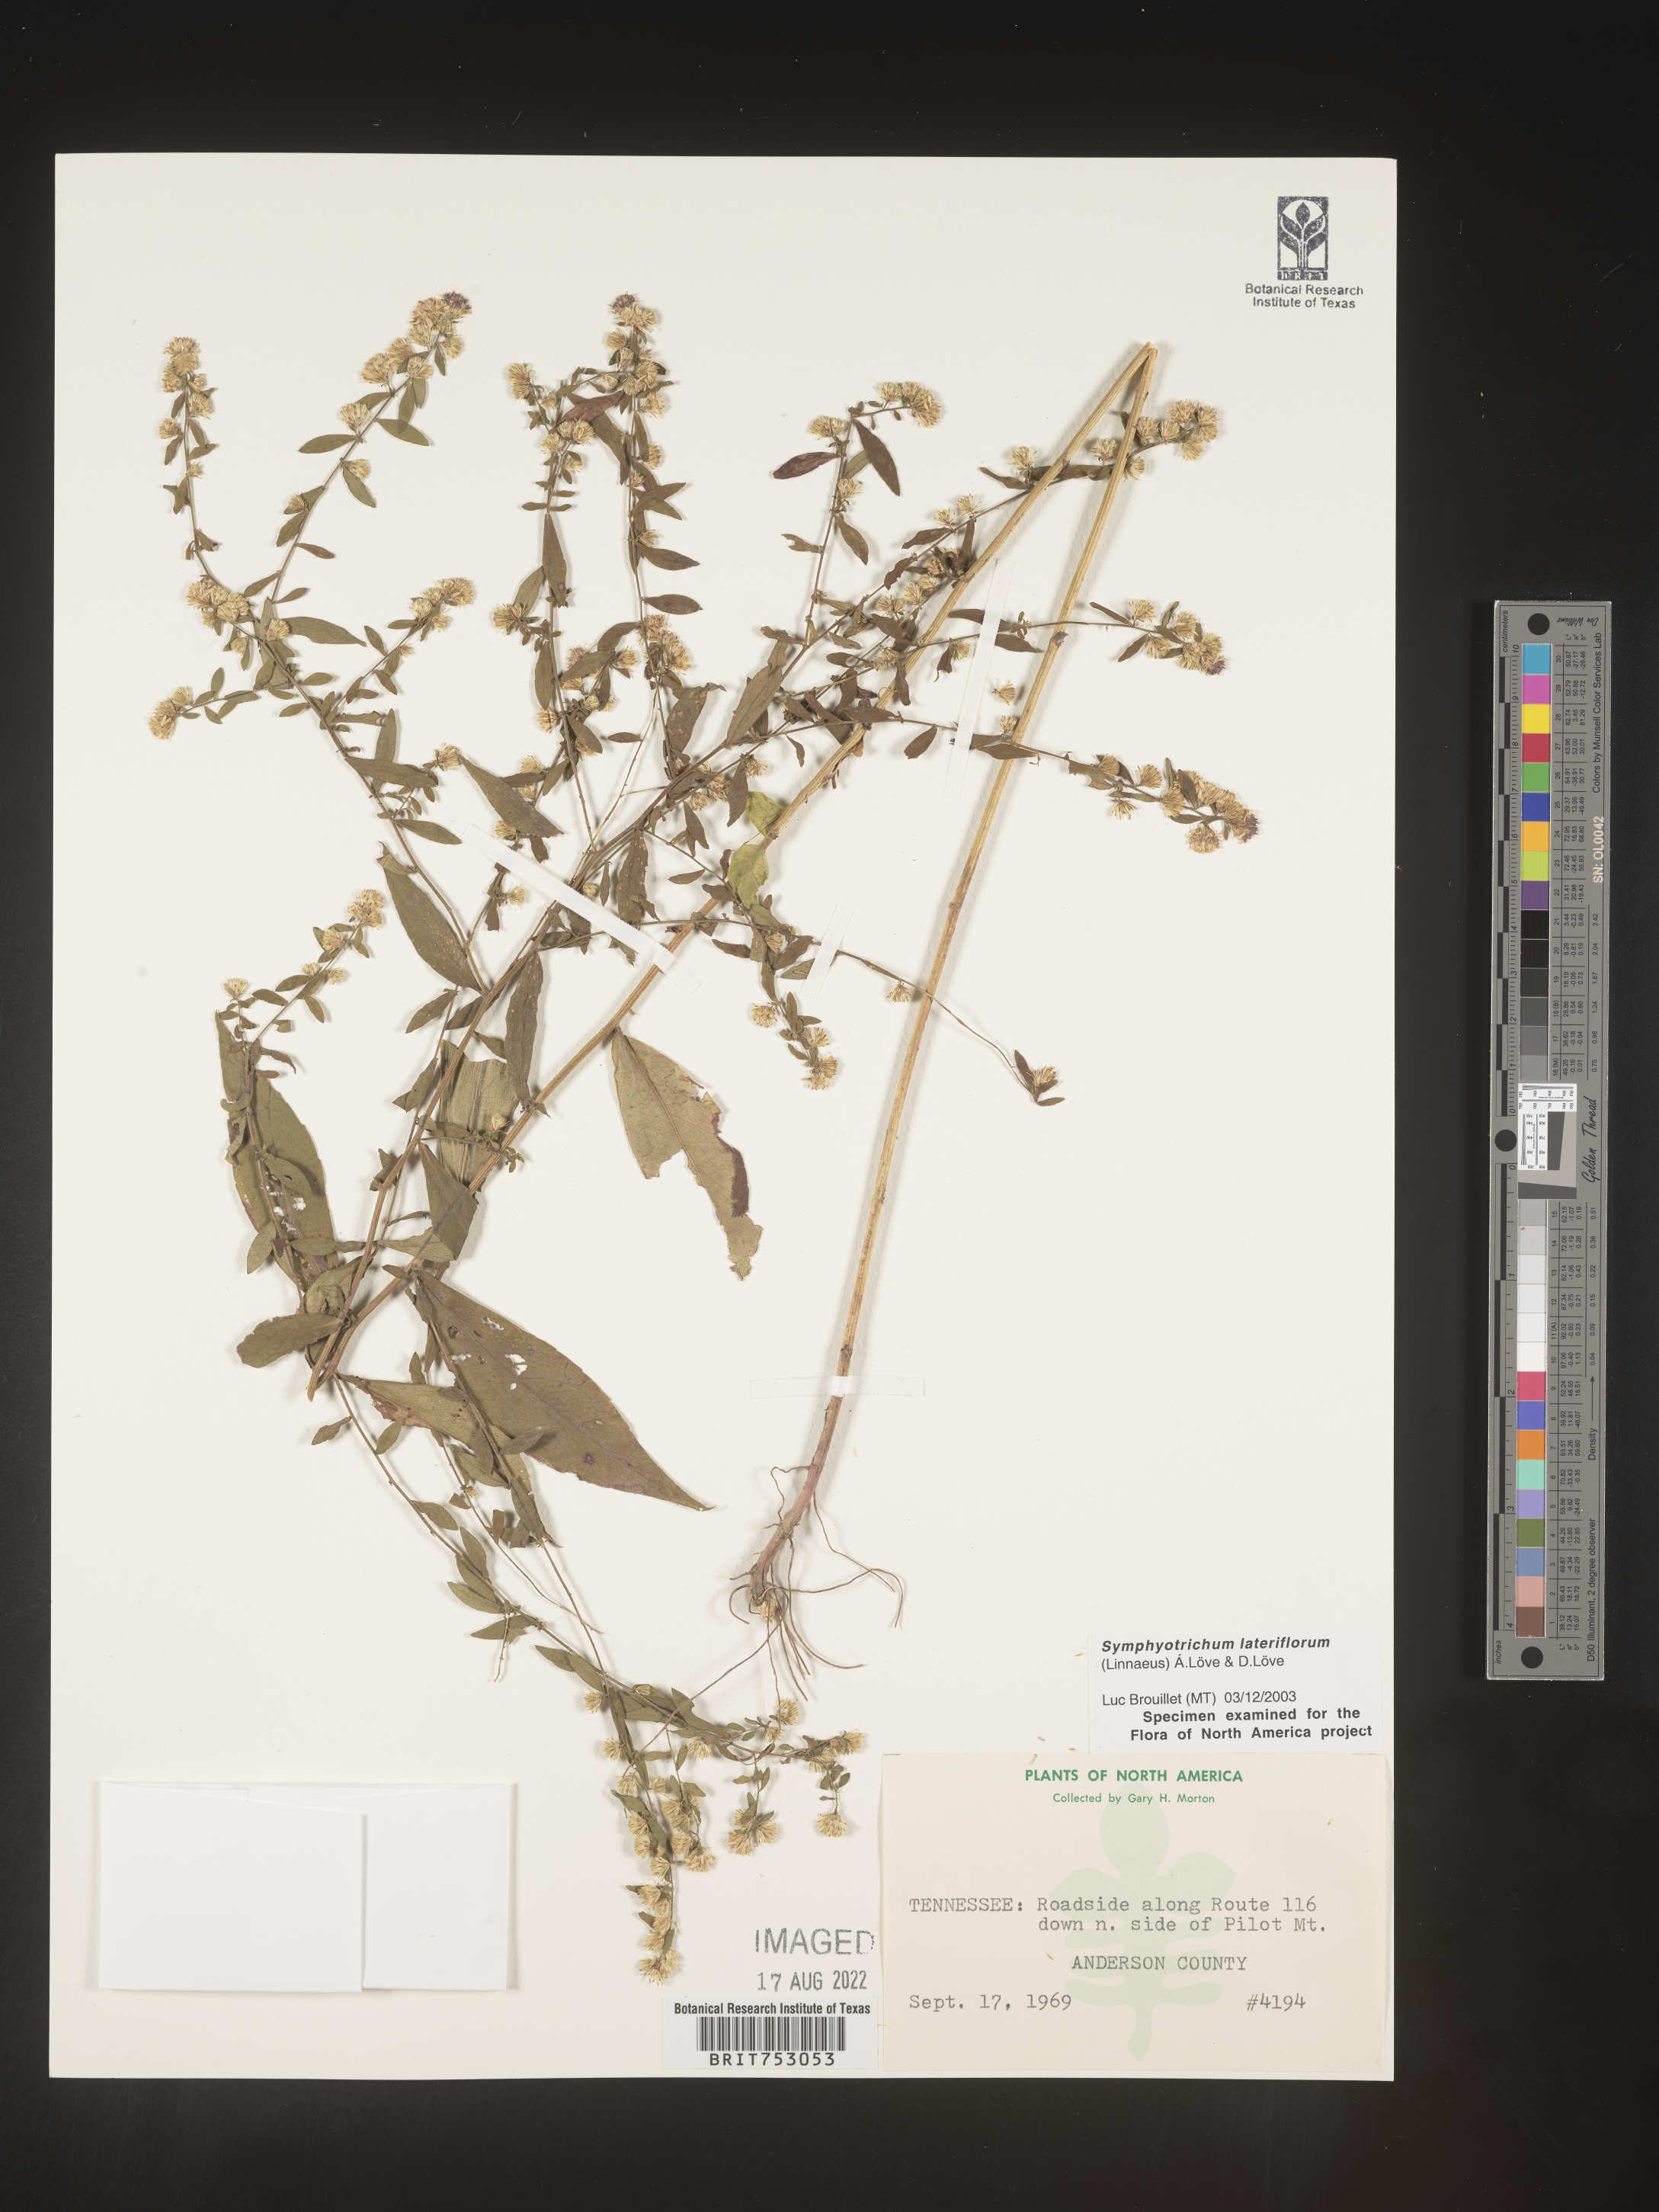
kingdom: Plantae
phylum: Tracheophyta
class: Magnoliopsida
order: Asterales
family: Asteraceae
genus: Symphyotrichum
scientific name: Symphyotrichum lateriflorum
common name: Calico aster
